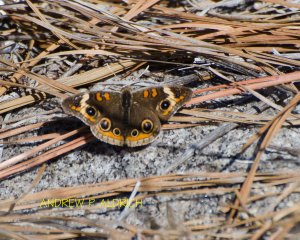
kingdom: Animalia
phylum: Arthropoda
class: Insecta
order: Lepidoptera
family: Nymphalidae
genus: Junonia
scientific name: Junonia coenia
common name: Common Buckeye
